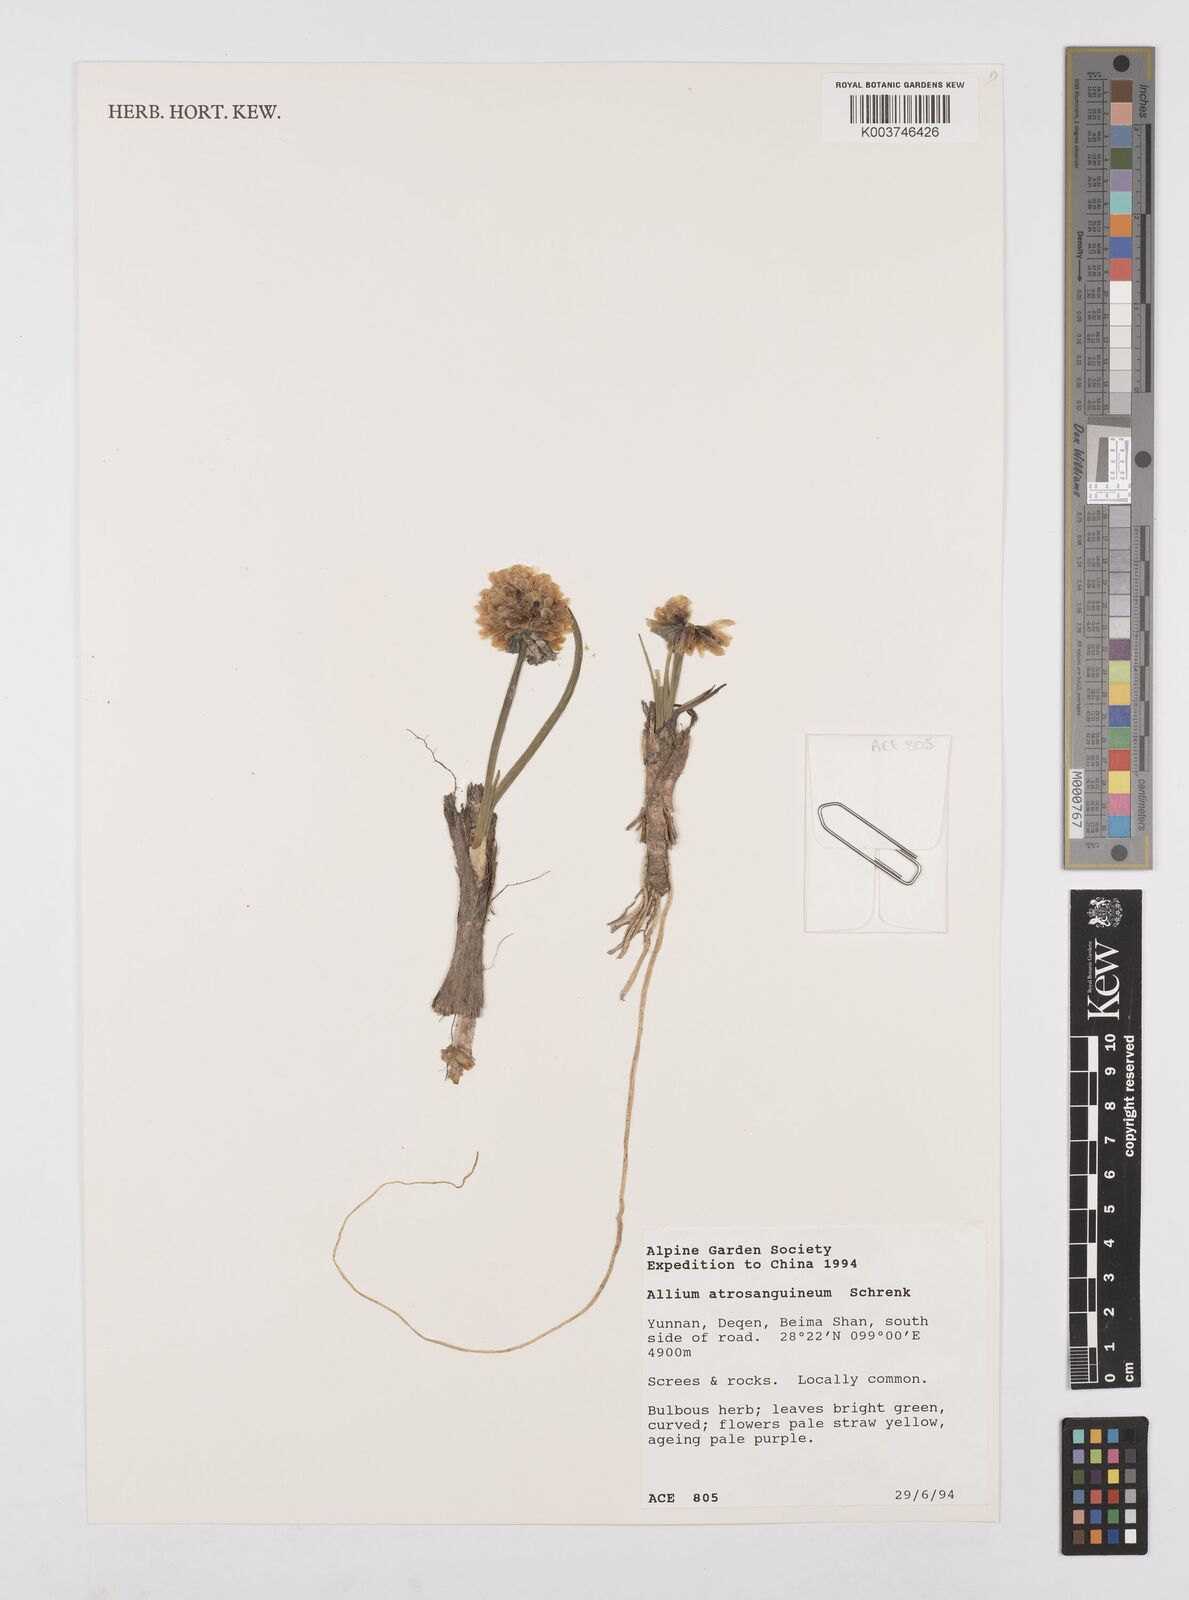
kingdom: Plantae
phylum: Tracheophyta
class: Liliopsida
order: Asparagales
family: Amaryllidaceae
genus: Allium
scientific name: Allium atrosanguineum
